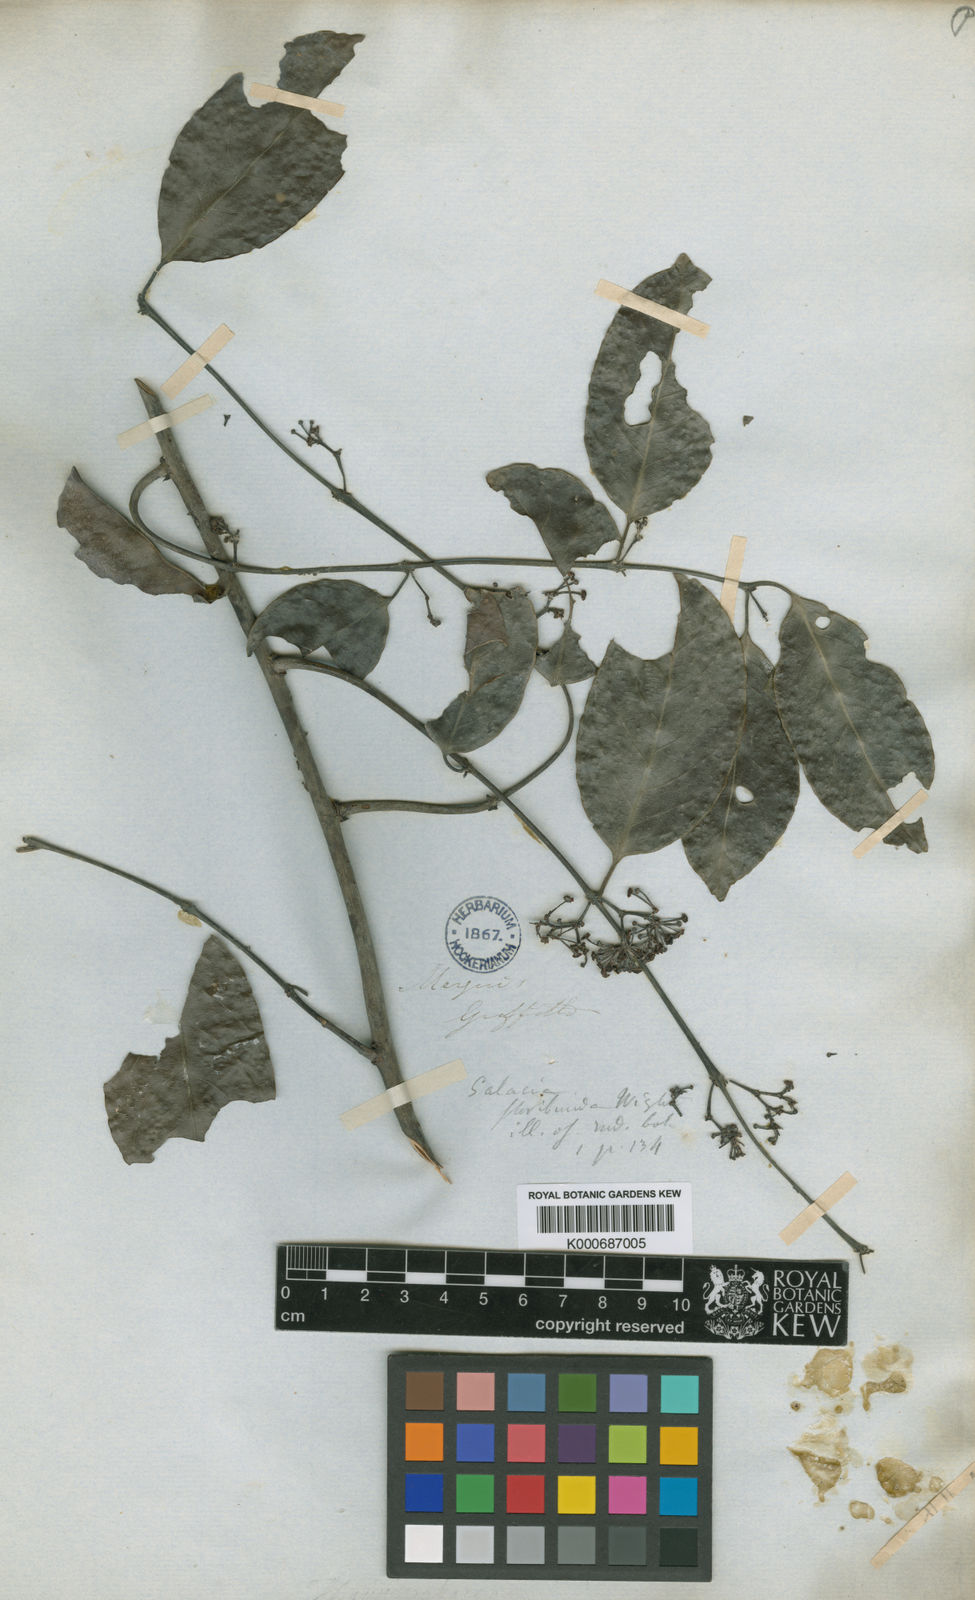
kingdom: Plantae
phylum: Tracheophyta
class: Magnoliopsida
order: Celastrales
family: Celastraceae
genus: Salacia
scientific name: Salacia floribunda
